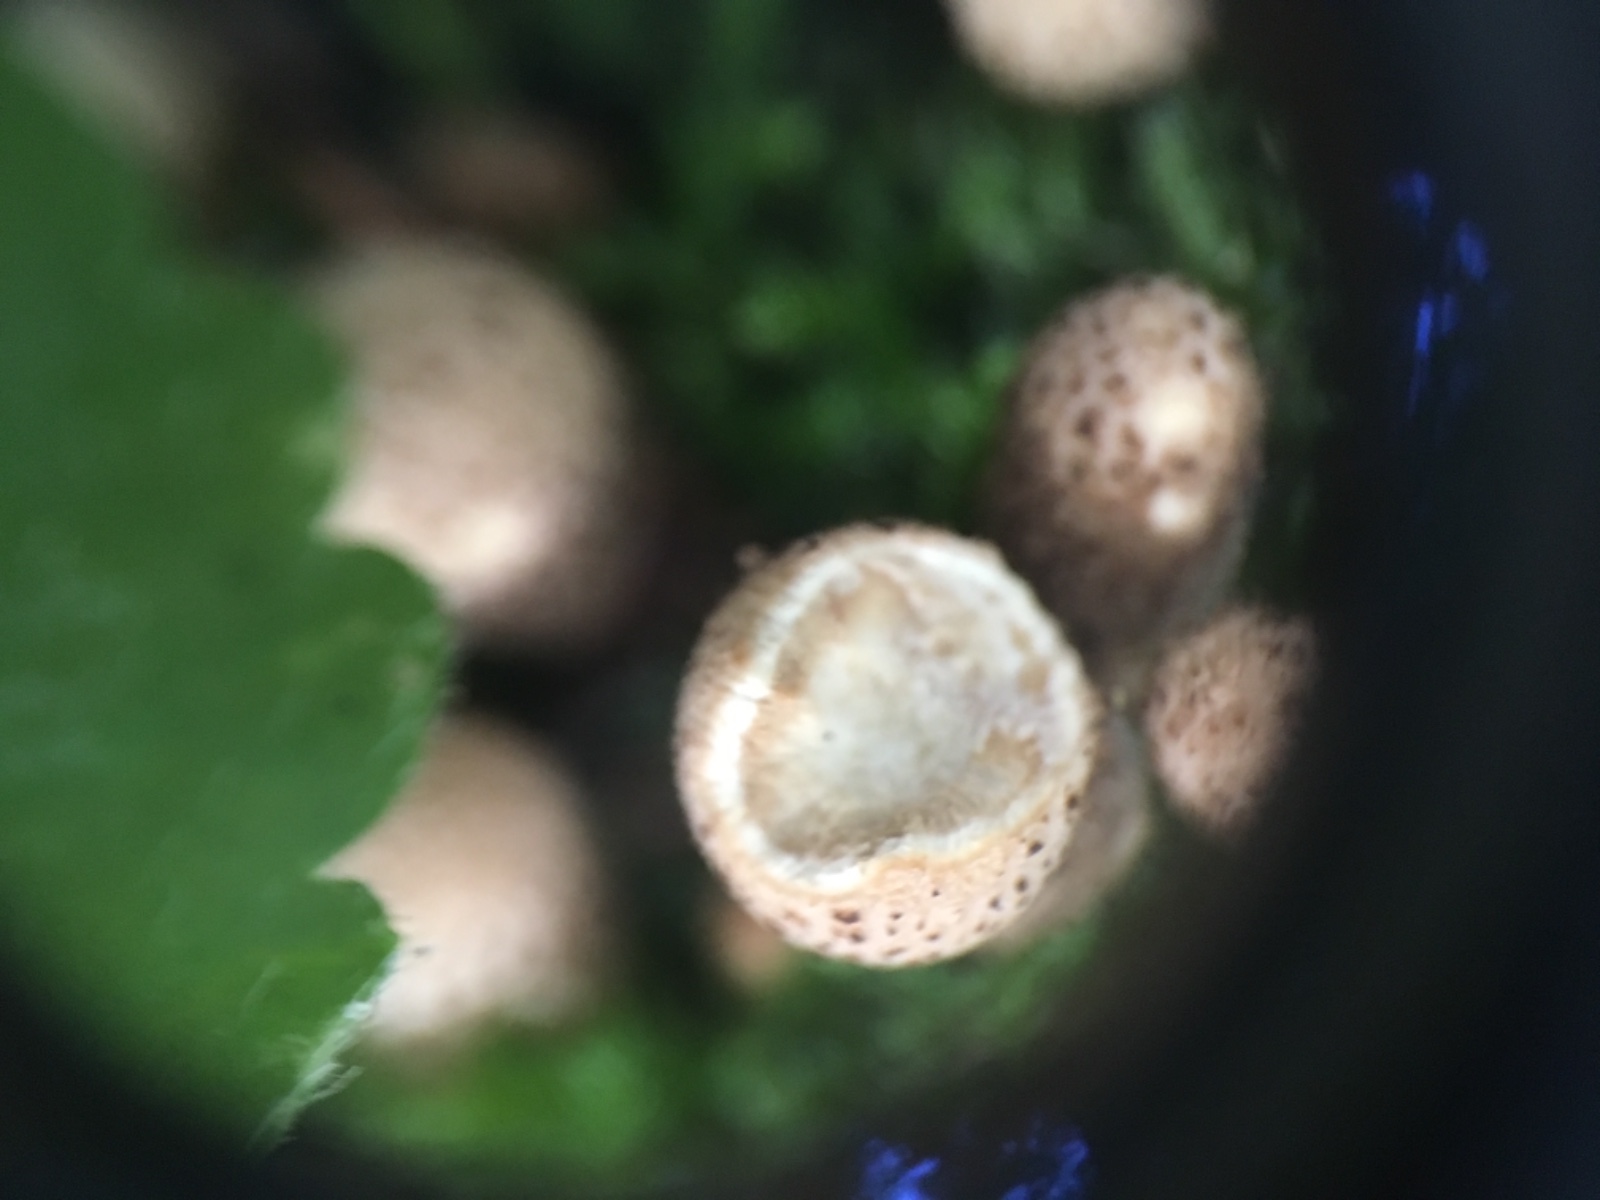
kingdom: Fungi
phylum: Basidiomycota
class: Agaricomycetes
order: Agaricales
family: Lycoperdaceae
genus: Apioperdon
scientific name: Apioperdon pyriforme
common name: pære-støvbold
